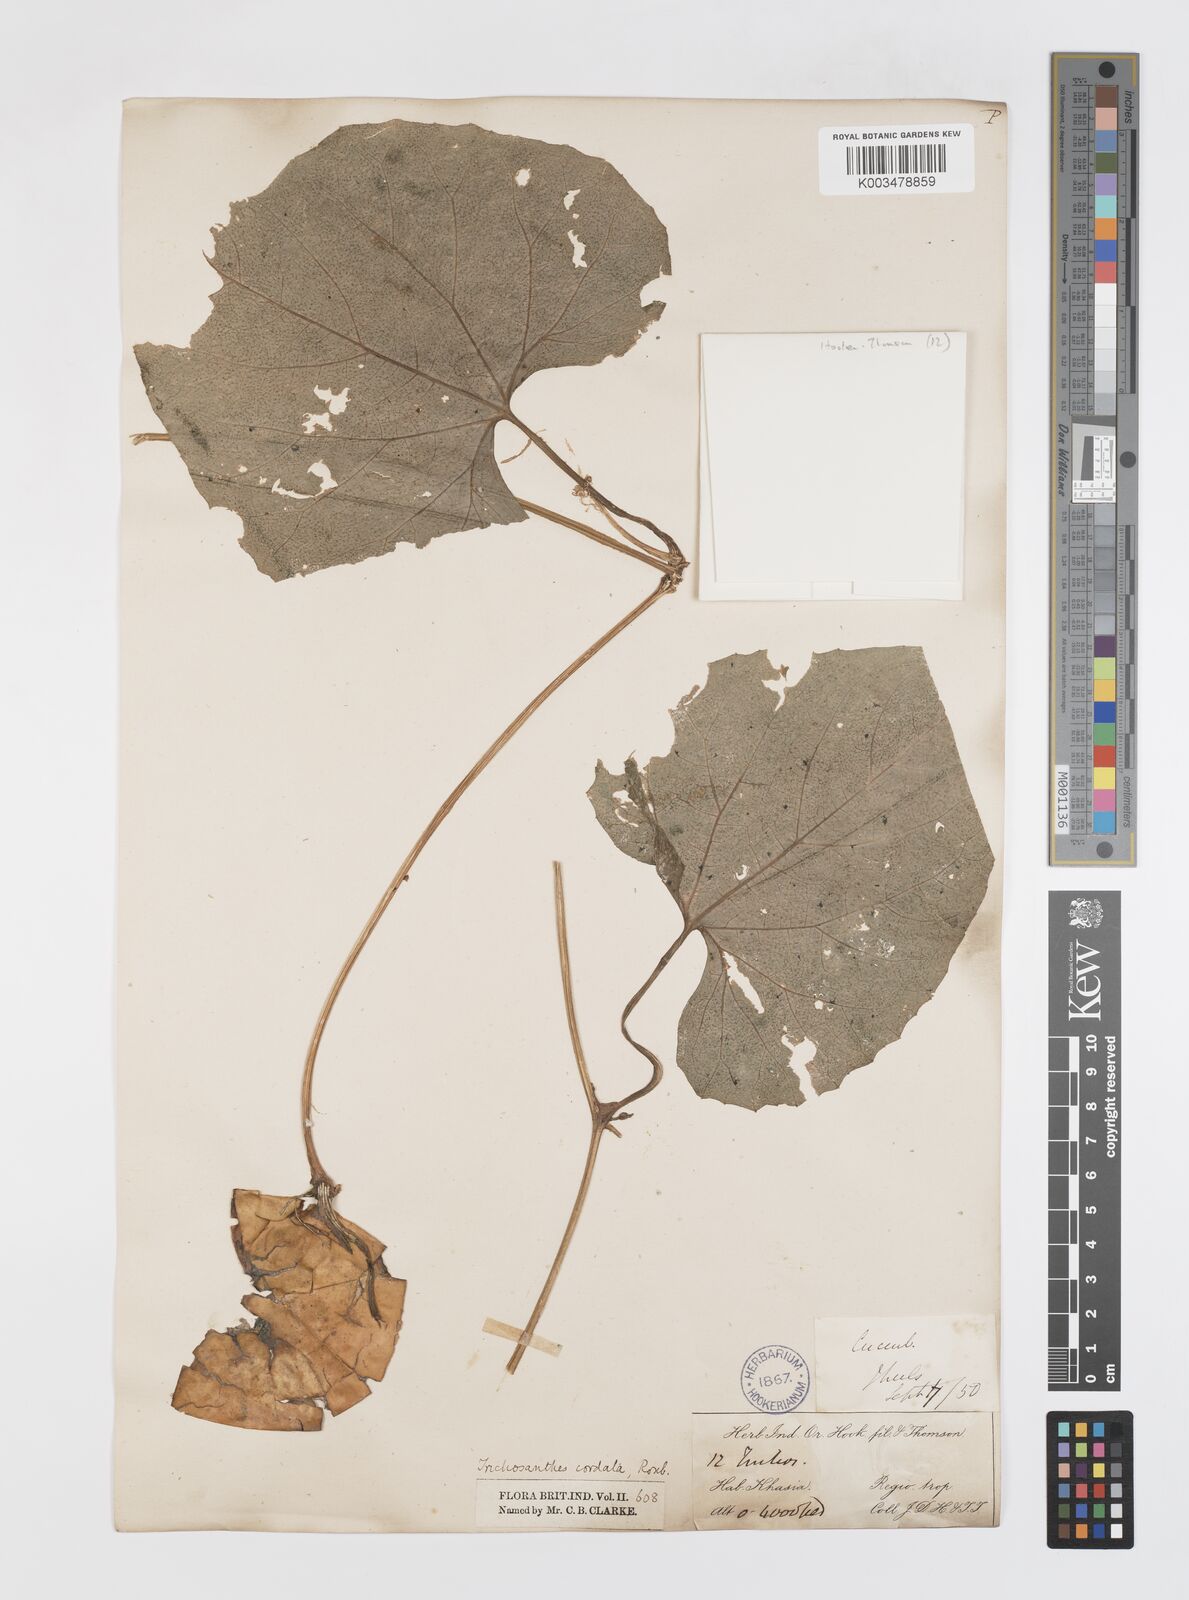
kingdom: Plantae
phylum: Tracheophyta
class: Magnoliopsida
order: Cucurbitales
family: Cucurbitaceae
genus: Trichosanthes
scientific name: Trichosanthes cordata
